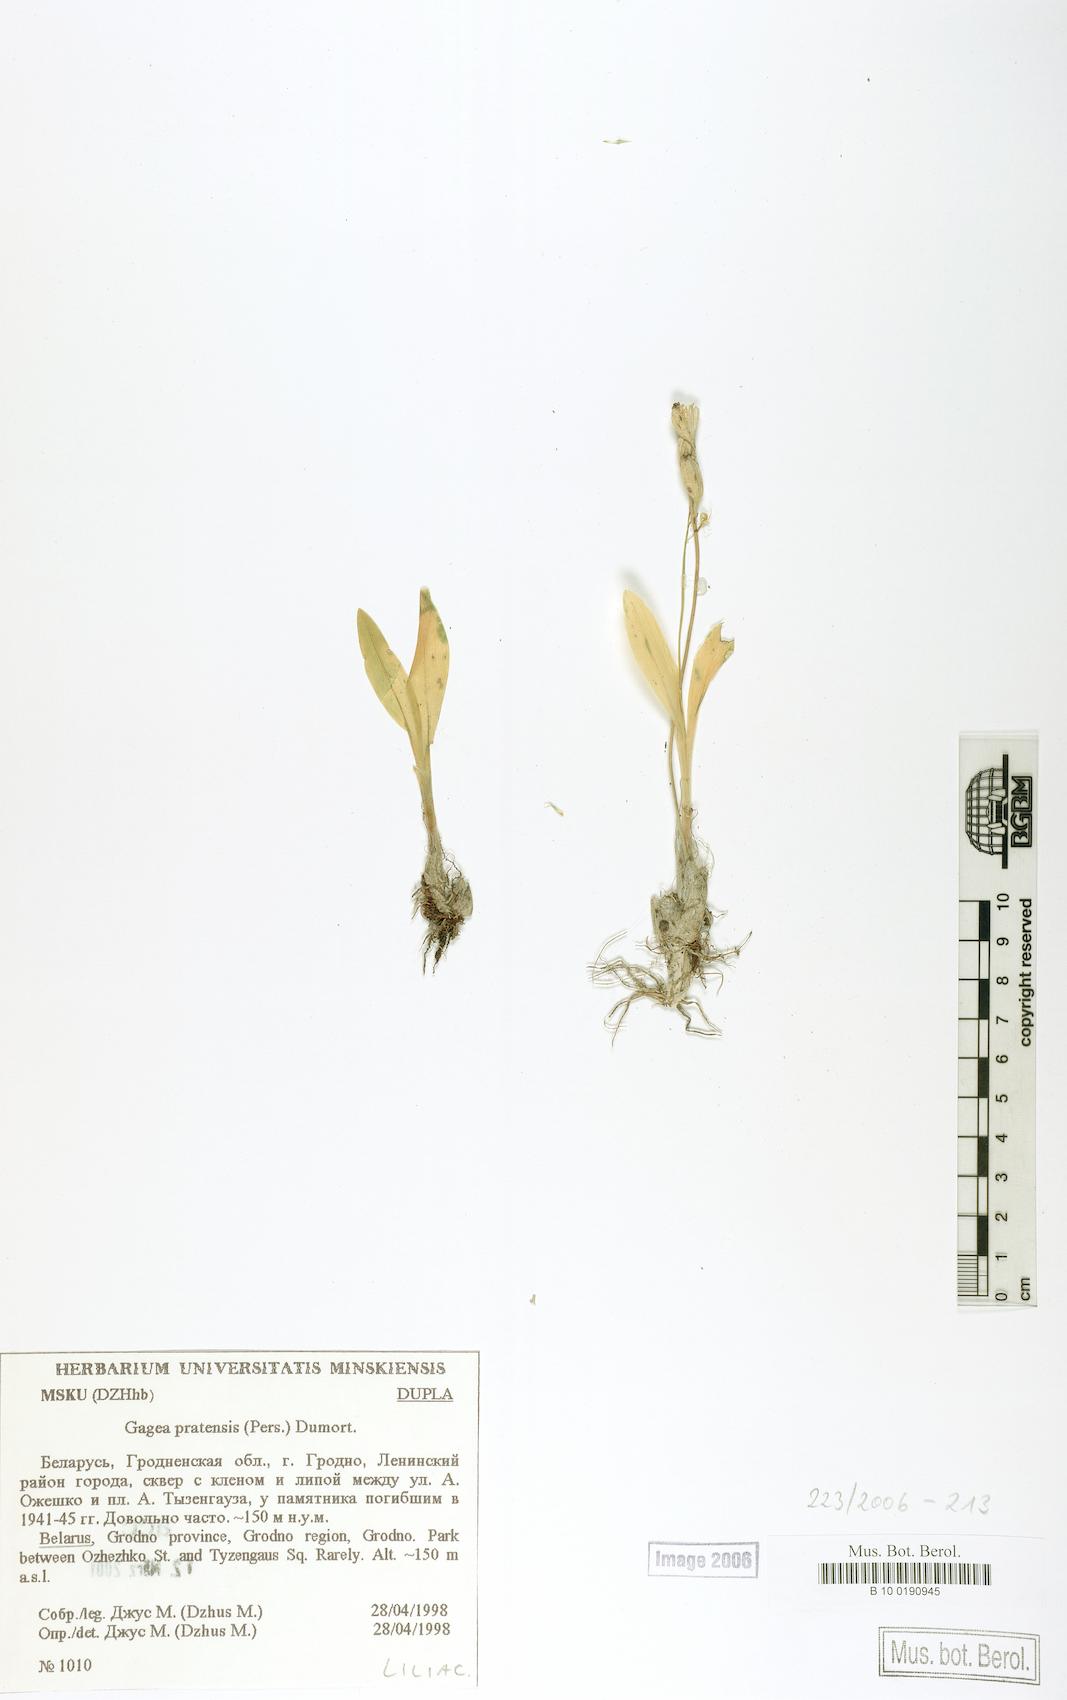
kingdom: Animalia
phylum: Arthropoda
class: Insecta
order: Coleoptera
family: Curculionidae
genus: Liparis
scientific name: Liparis loeselii
